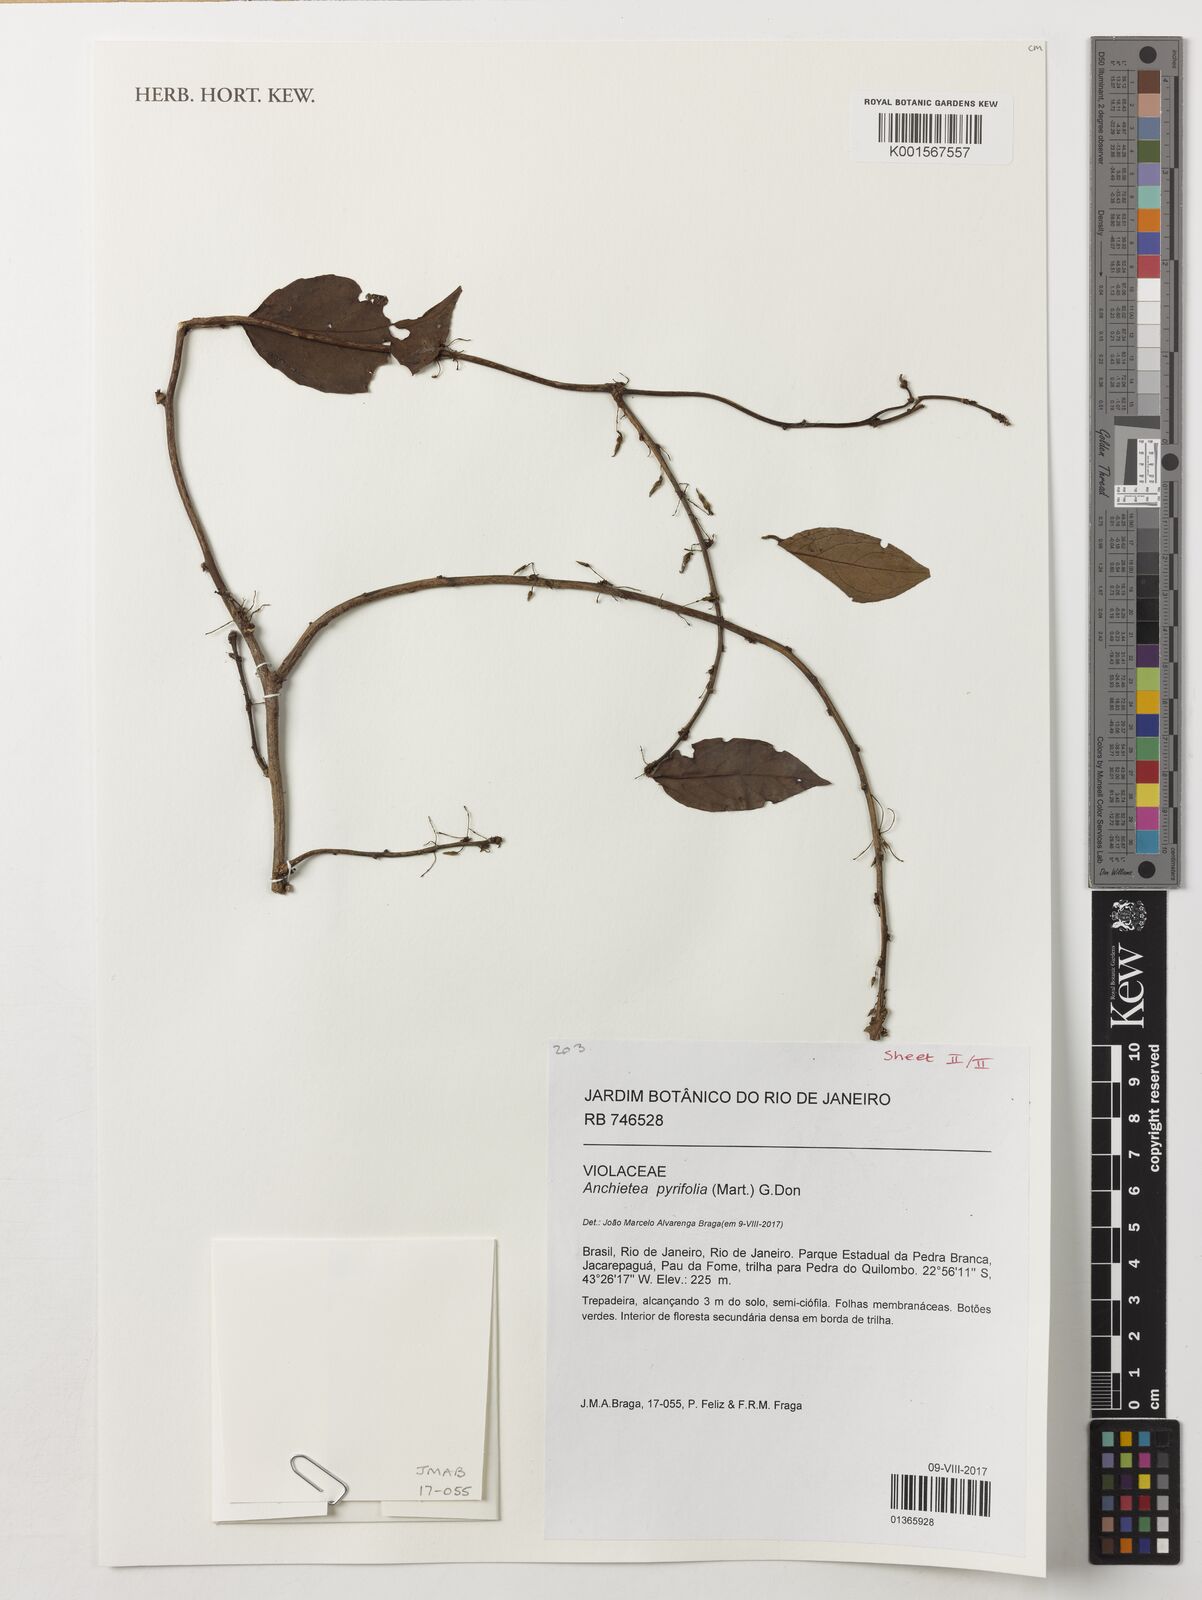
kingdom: Plantae
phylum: Tracheophyta
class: Magnoliopsida
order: Malpighiales
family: Calophyllaceae
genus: Kielmeyera
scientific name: Kielmeyera aureovinosa
